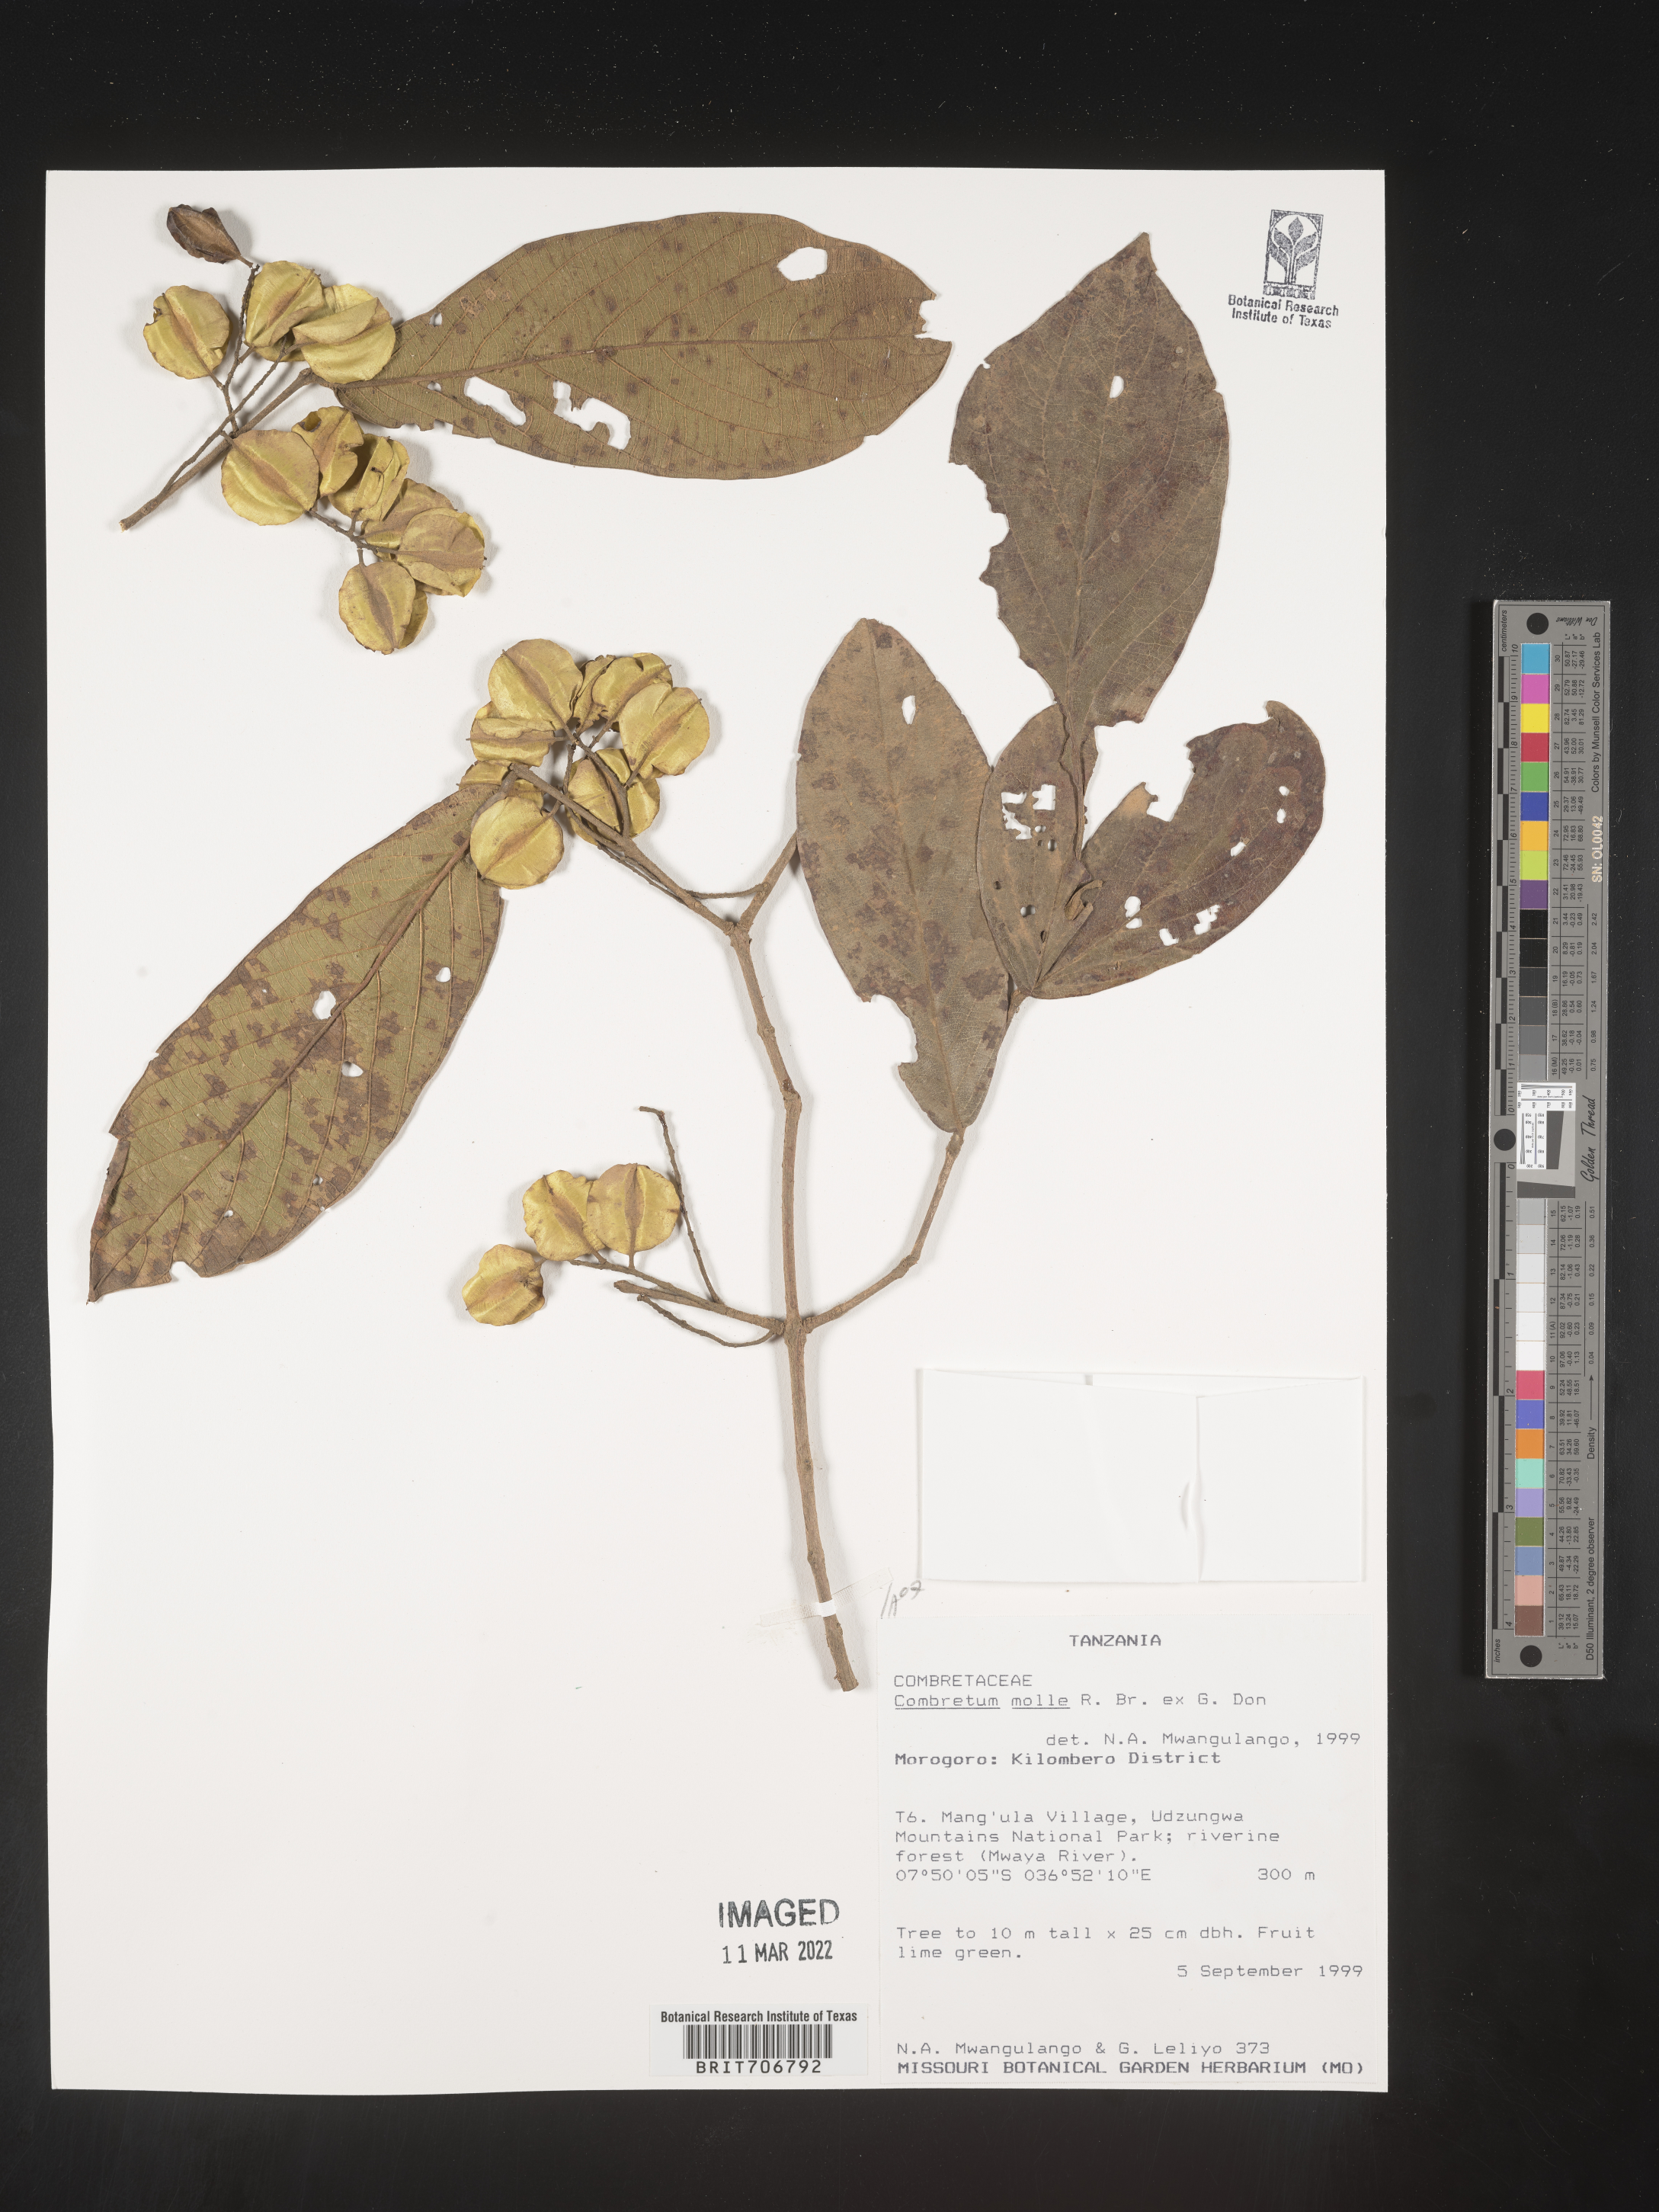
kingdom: Plantae
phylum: Tracheophyta
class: Magnoliopsida
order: Myrtales
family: Combretaceae
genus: Combretum
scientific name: Combretum
